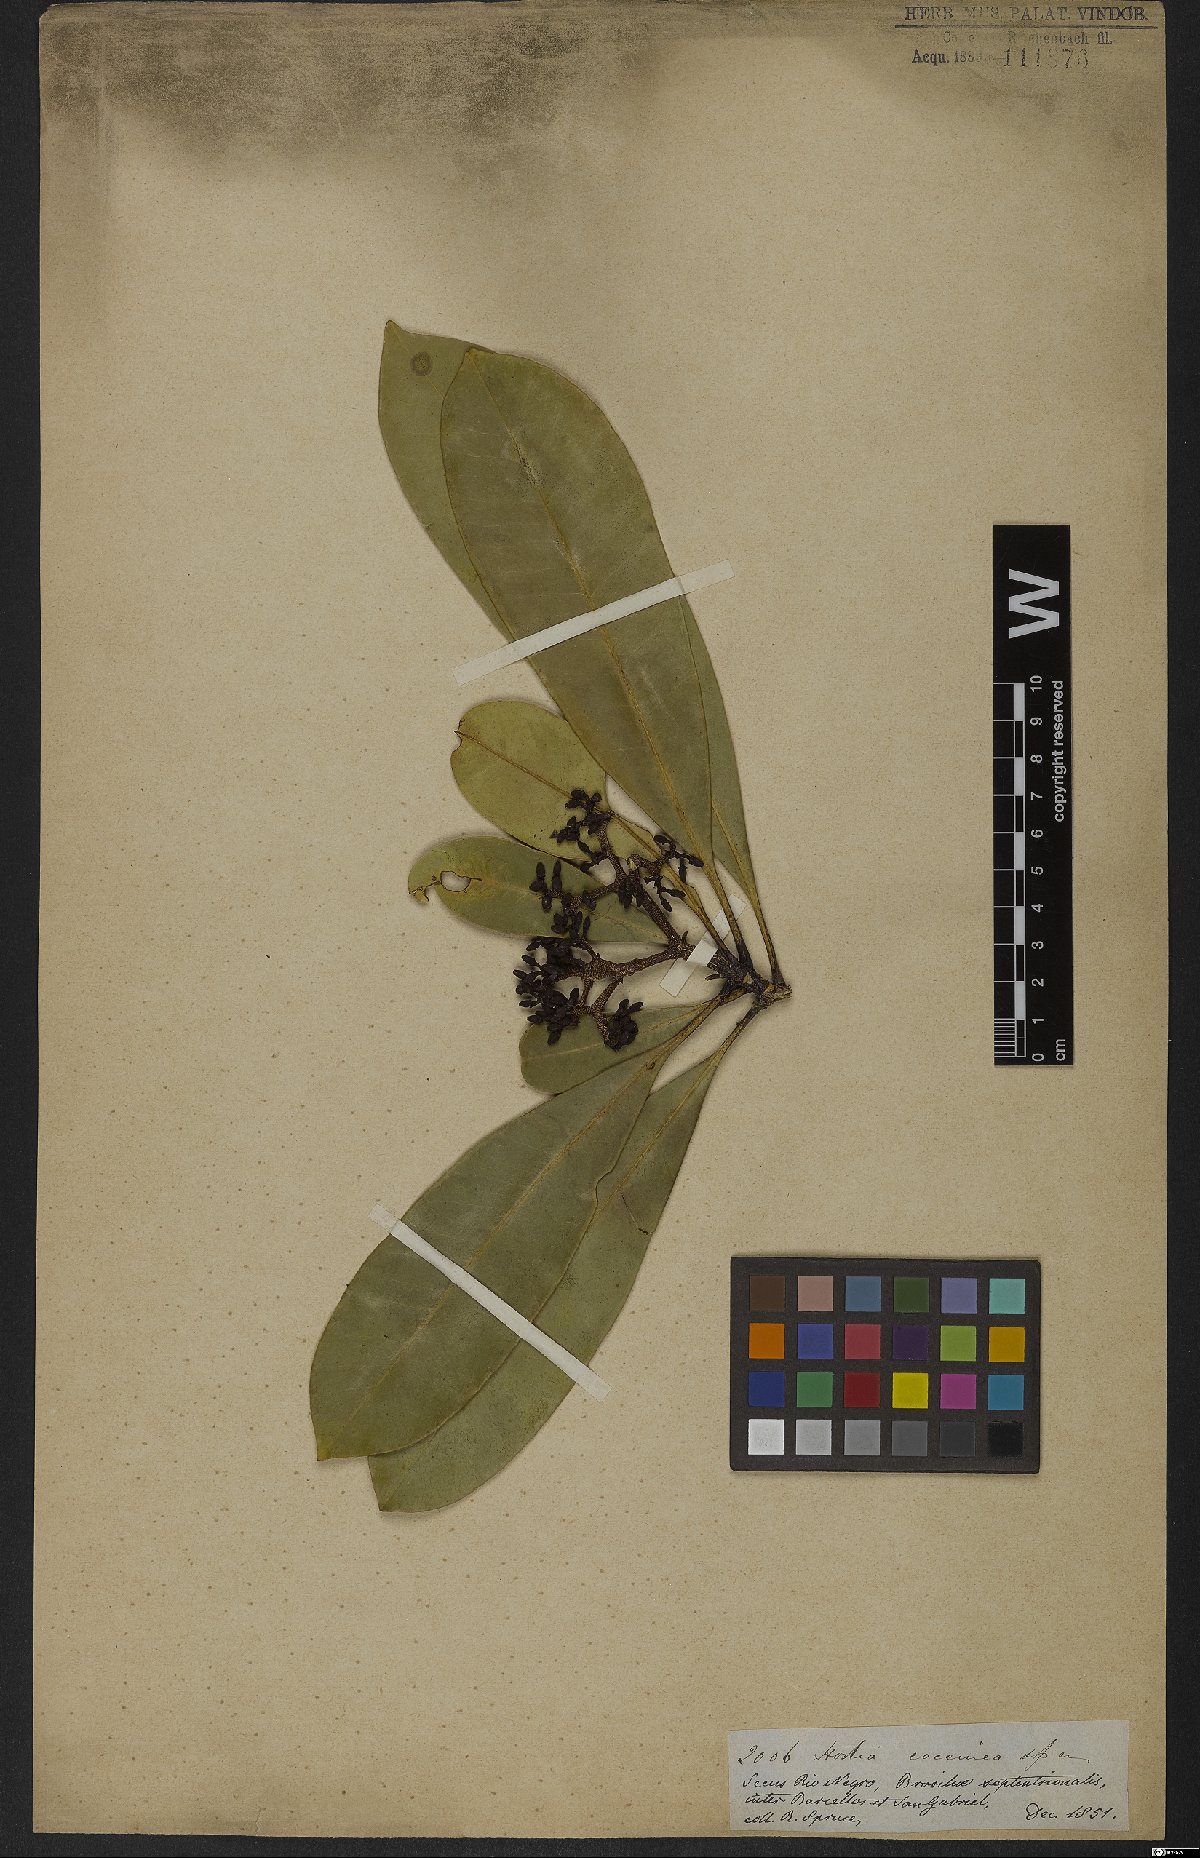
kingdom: Plantae
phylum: Tracheophyta
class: Magnoliopsida
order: Sapindales
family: Rutaceae
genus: Hortia
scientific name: Hortia coccinea
